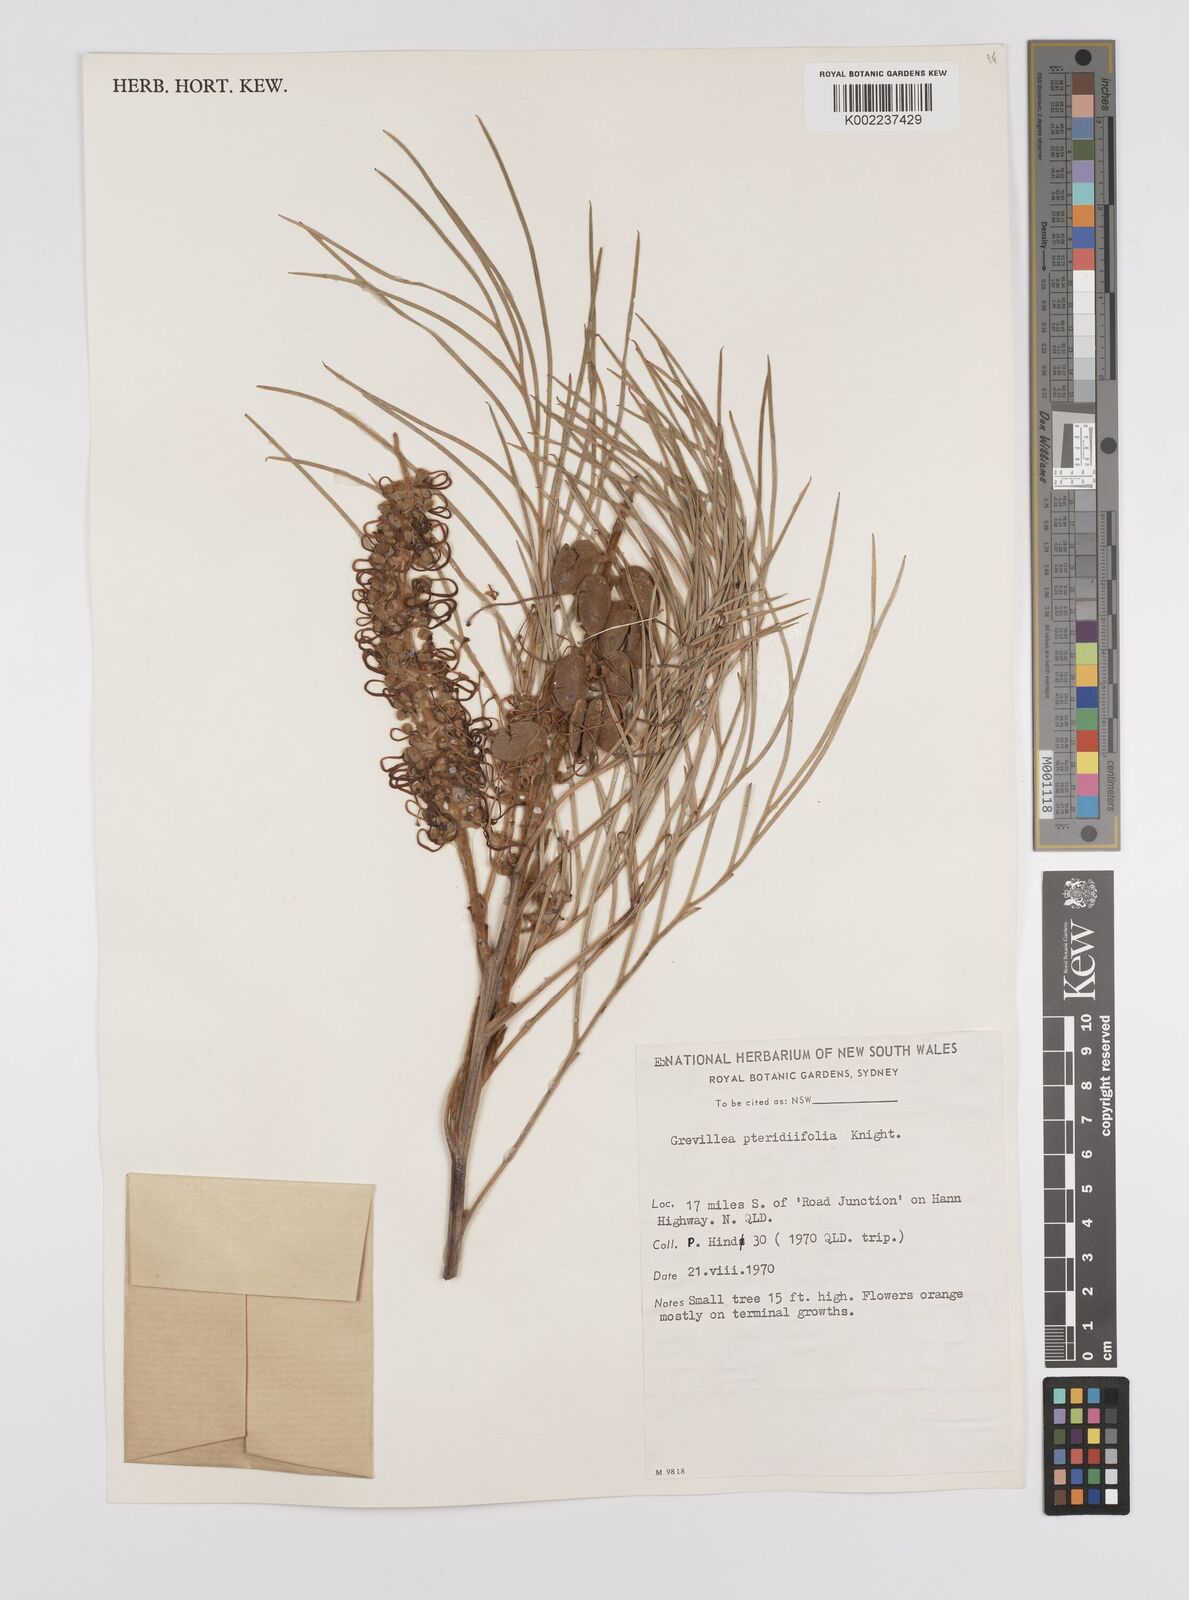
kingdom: Plantae
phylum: Tracheophyta
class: Magnoliopsida
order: Proteales
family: Proteaceae
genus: Grevillea
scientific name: Grevillea pteridifolia
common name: Golden grevillea
